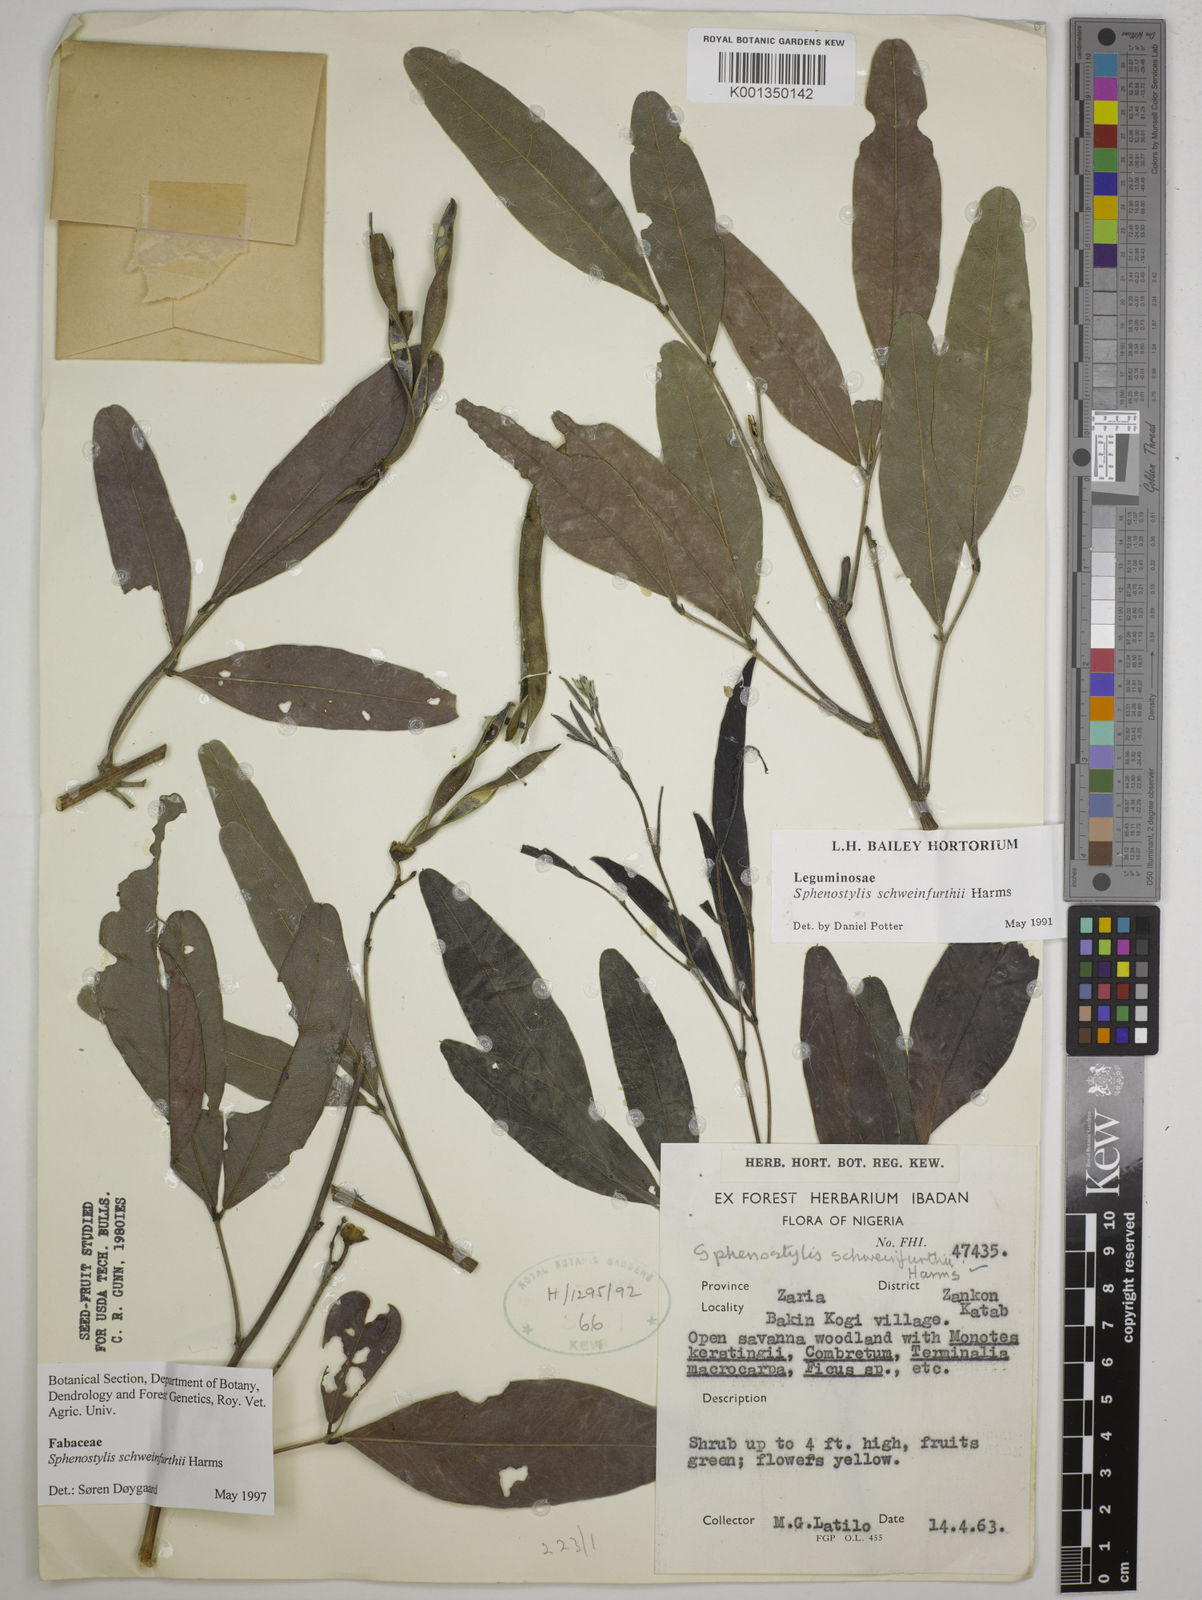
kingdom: Plantae
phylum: Tracheophyta
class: Magnoliopsida
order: Fabales
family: Fabaceae
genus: Sphenostylis
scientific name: Sphenostylis schweinfurthii
